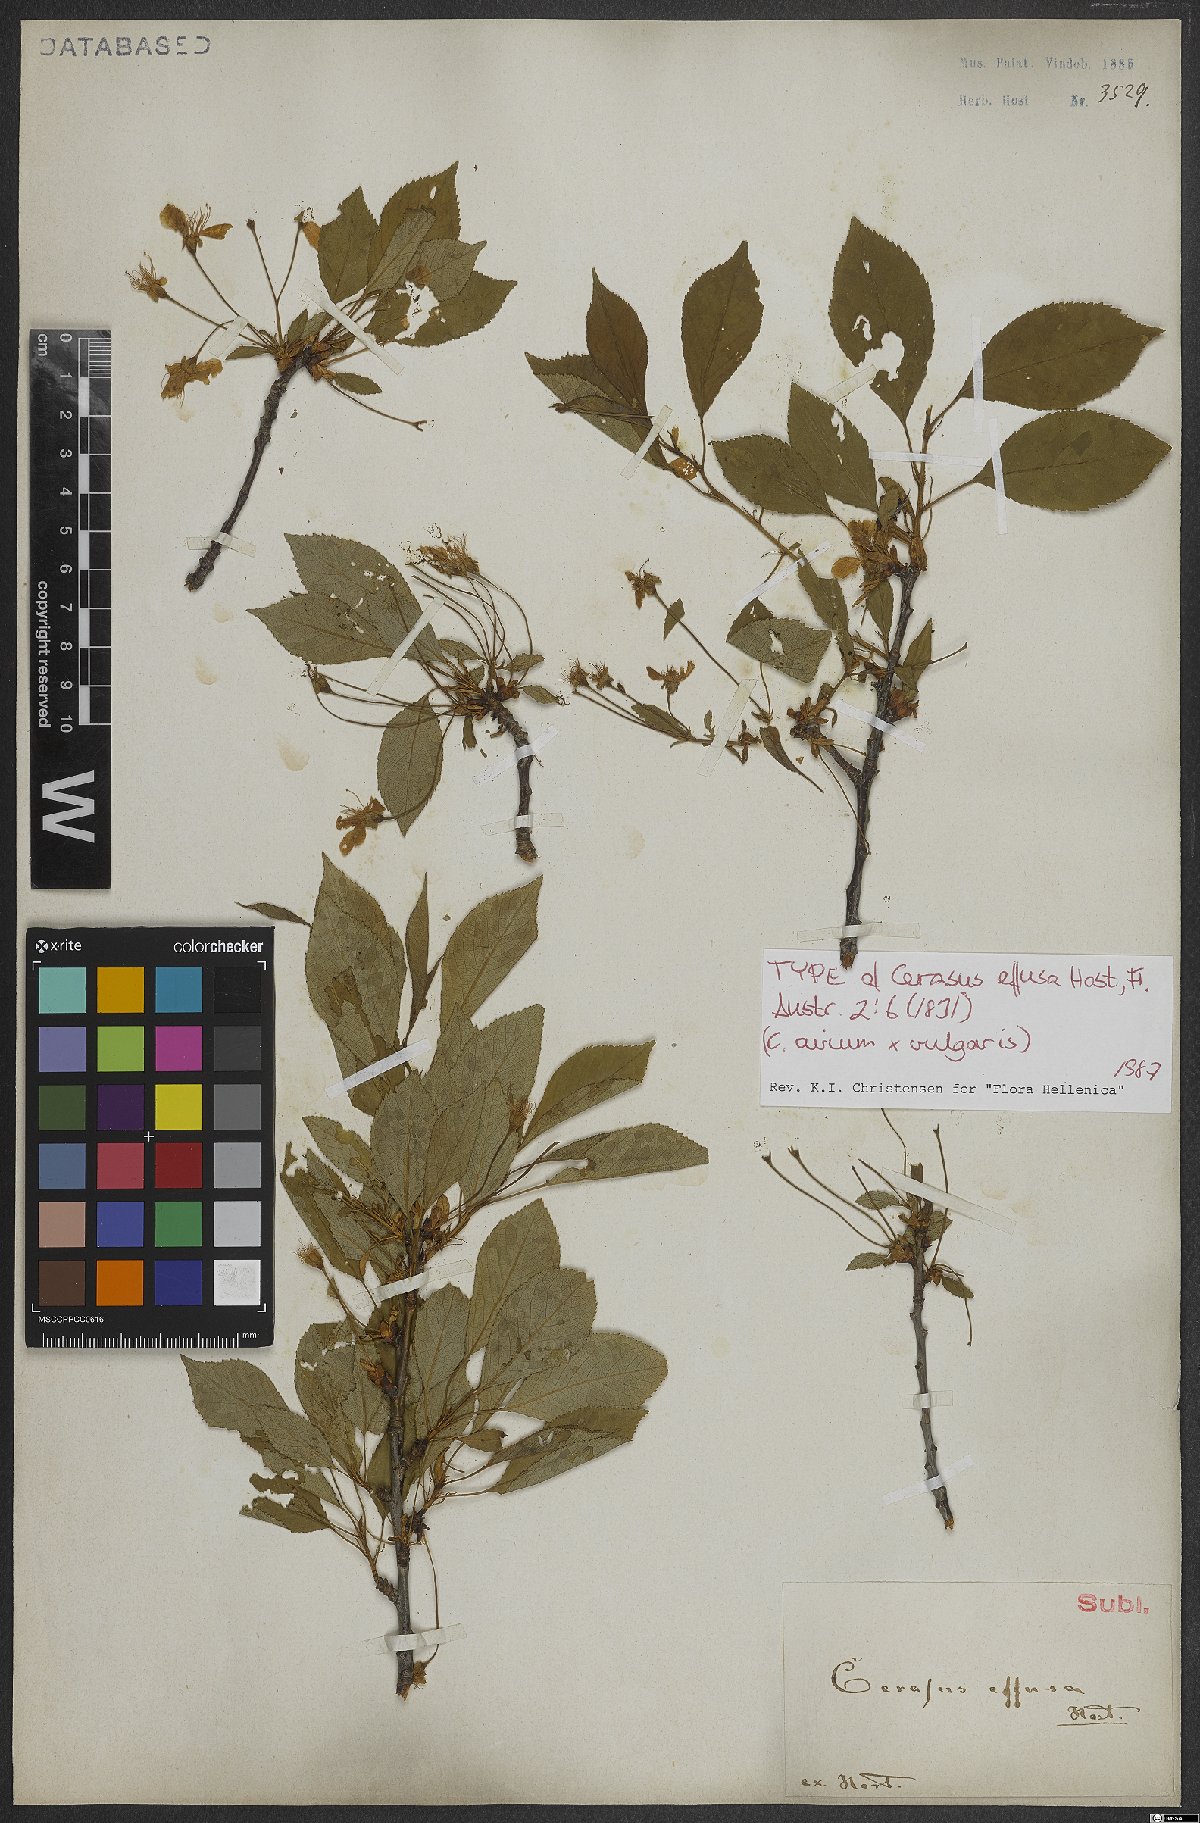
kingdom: Plantae
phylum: Tracheophyta
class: Magnoliopsida
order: Rosales
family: Rosaceae
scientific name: Rosaceae
